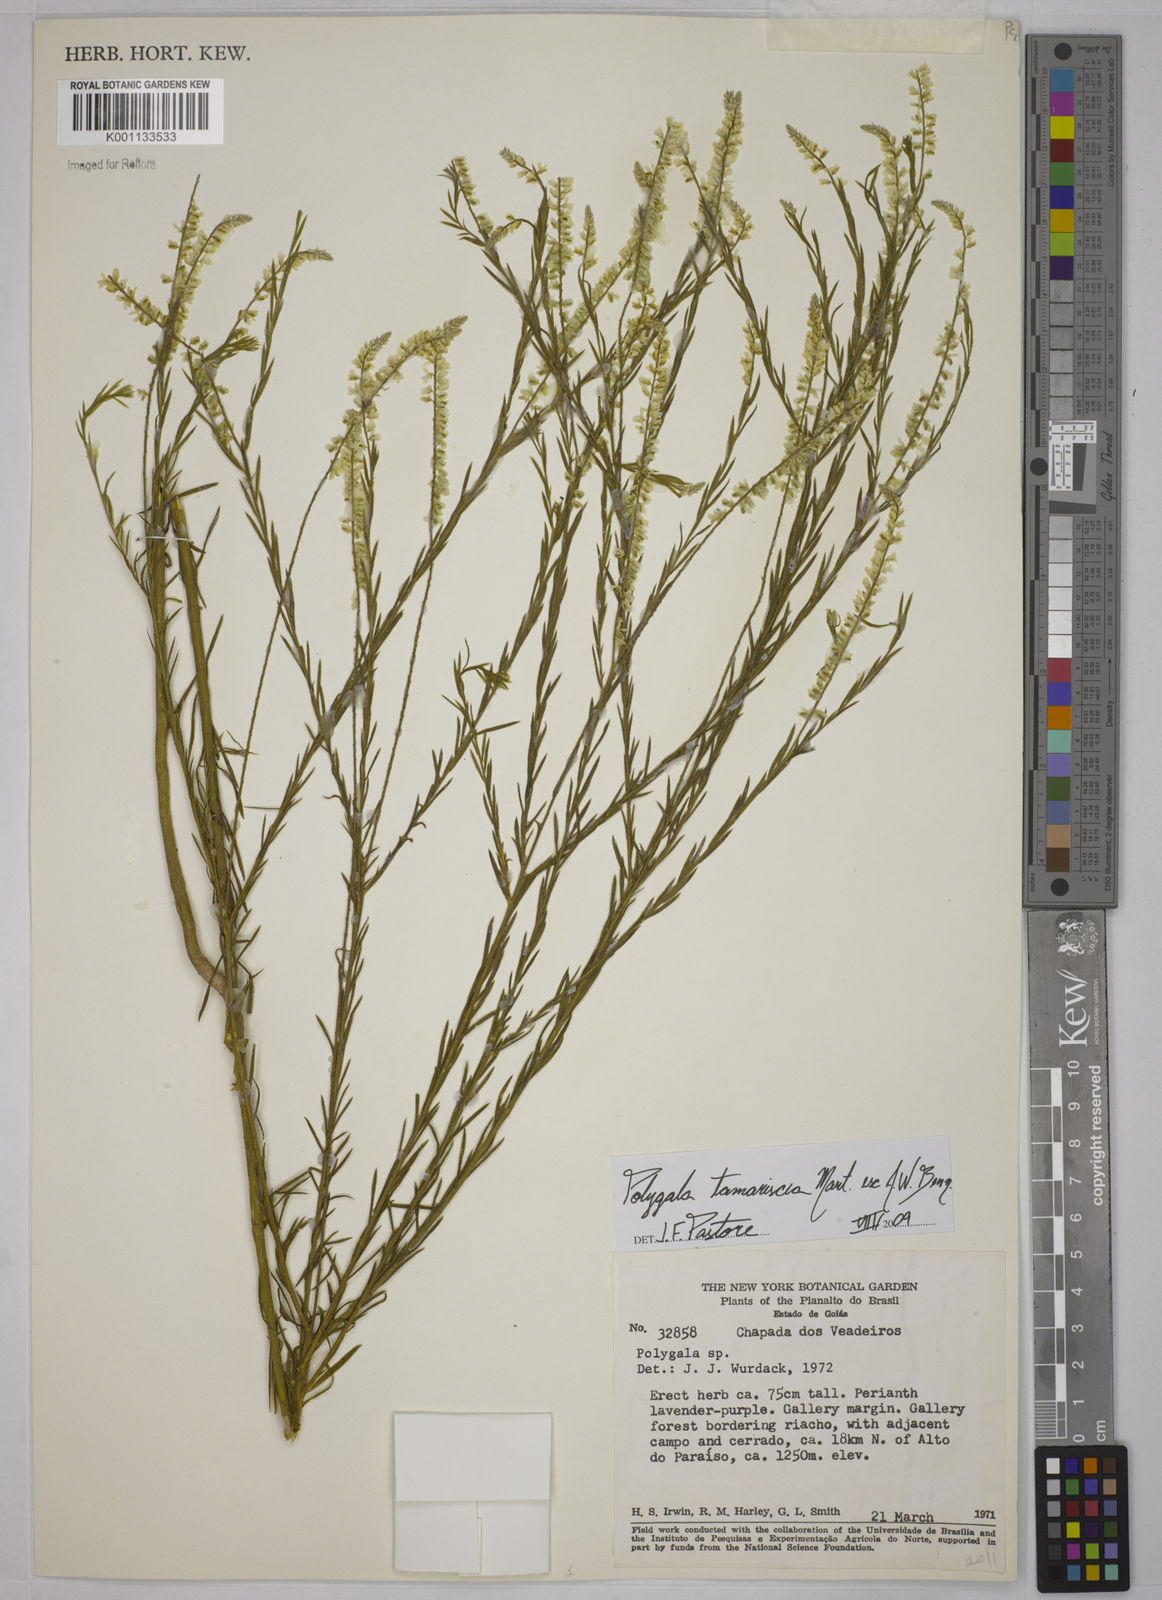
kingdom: Plantae
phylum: Tracheophyta
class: Magnoliopsida
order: Fabales
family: Polygalaceae
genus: Polygala
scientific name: Polygala tamariscea
